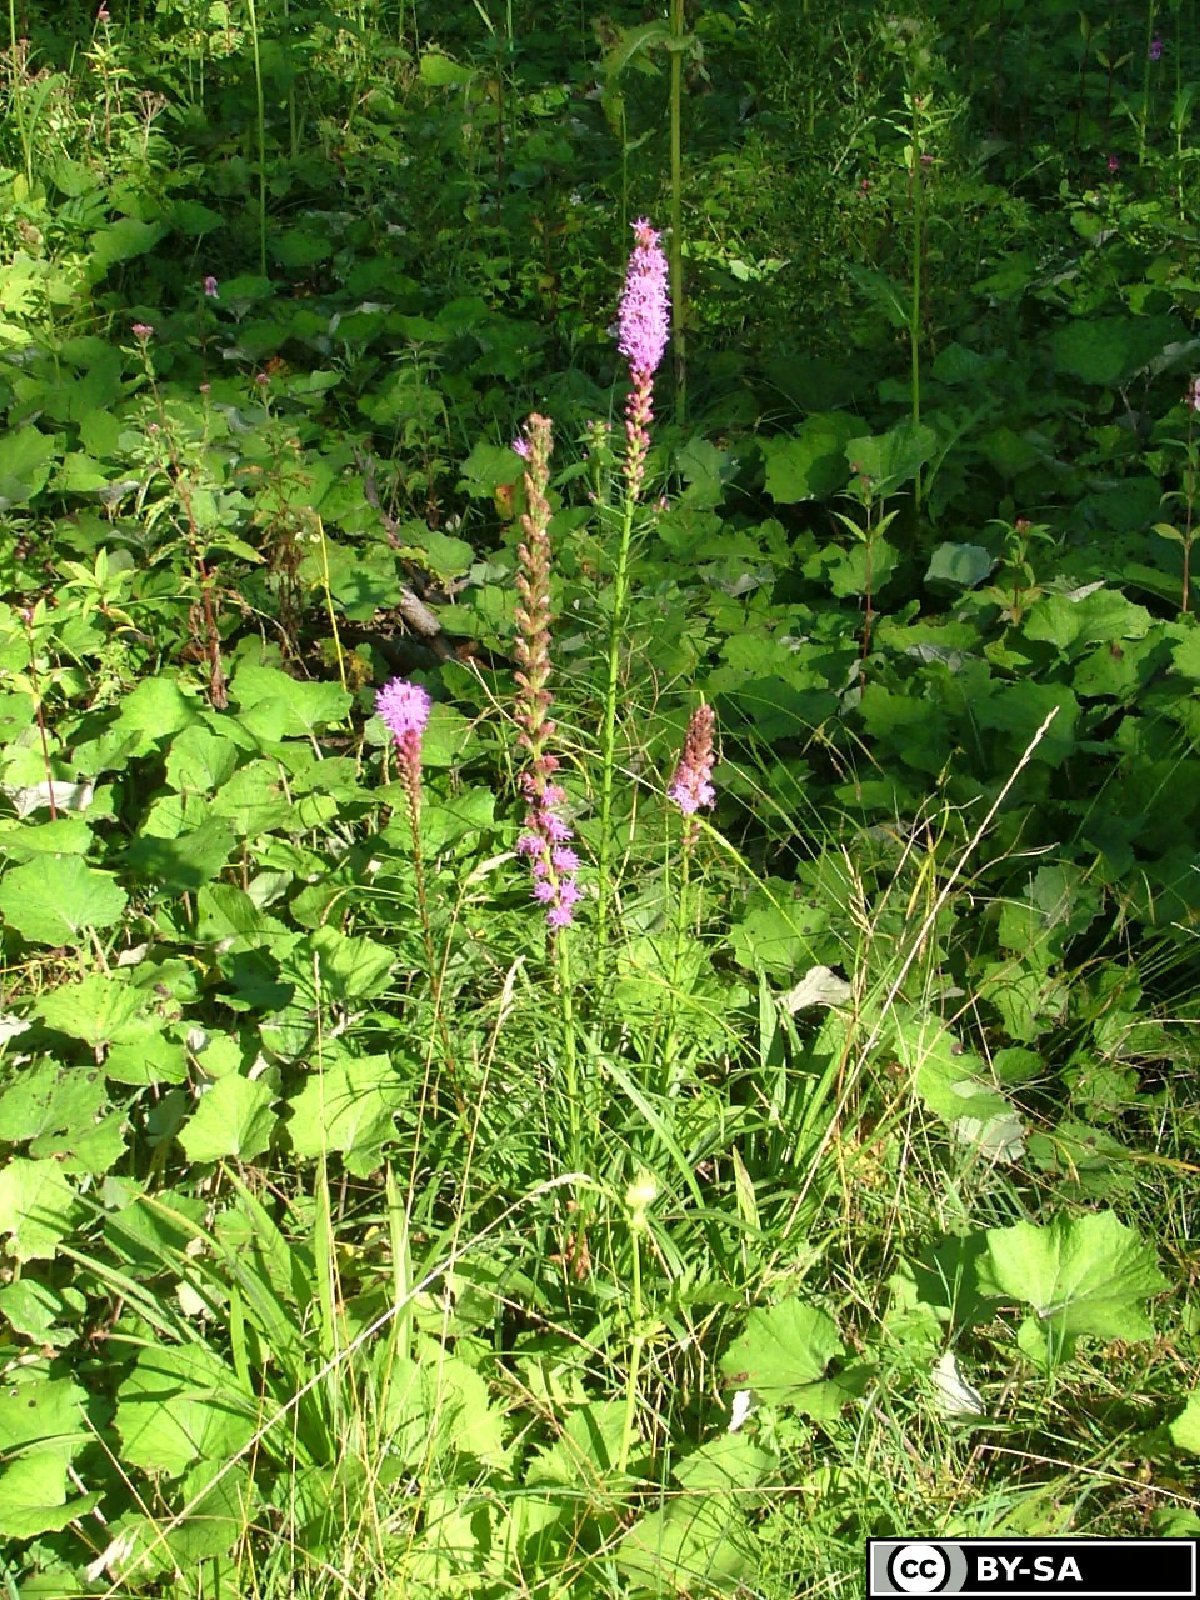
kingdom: Plantae
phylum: Tracheophyta
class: Magnoliopsida
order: Asterales
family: Asteraceae
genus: Liatris
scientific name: Liatris spicata
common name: Florist gayfeather
